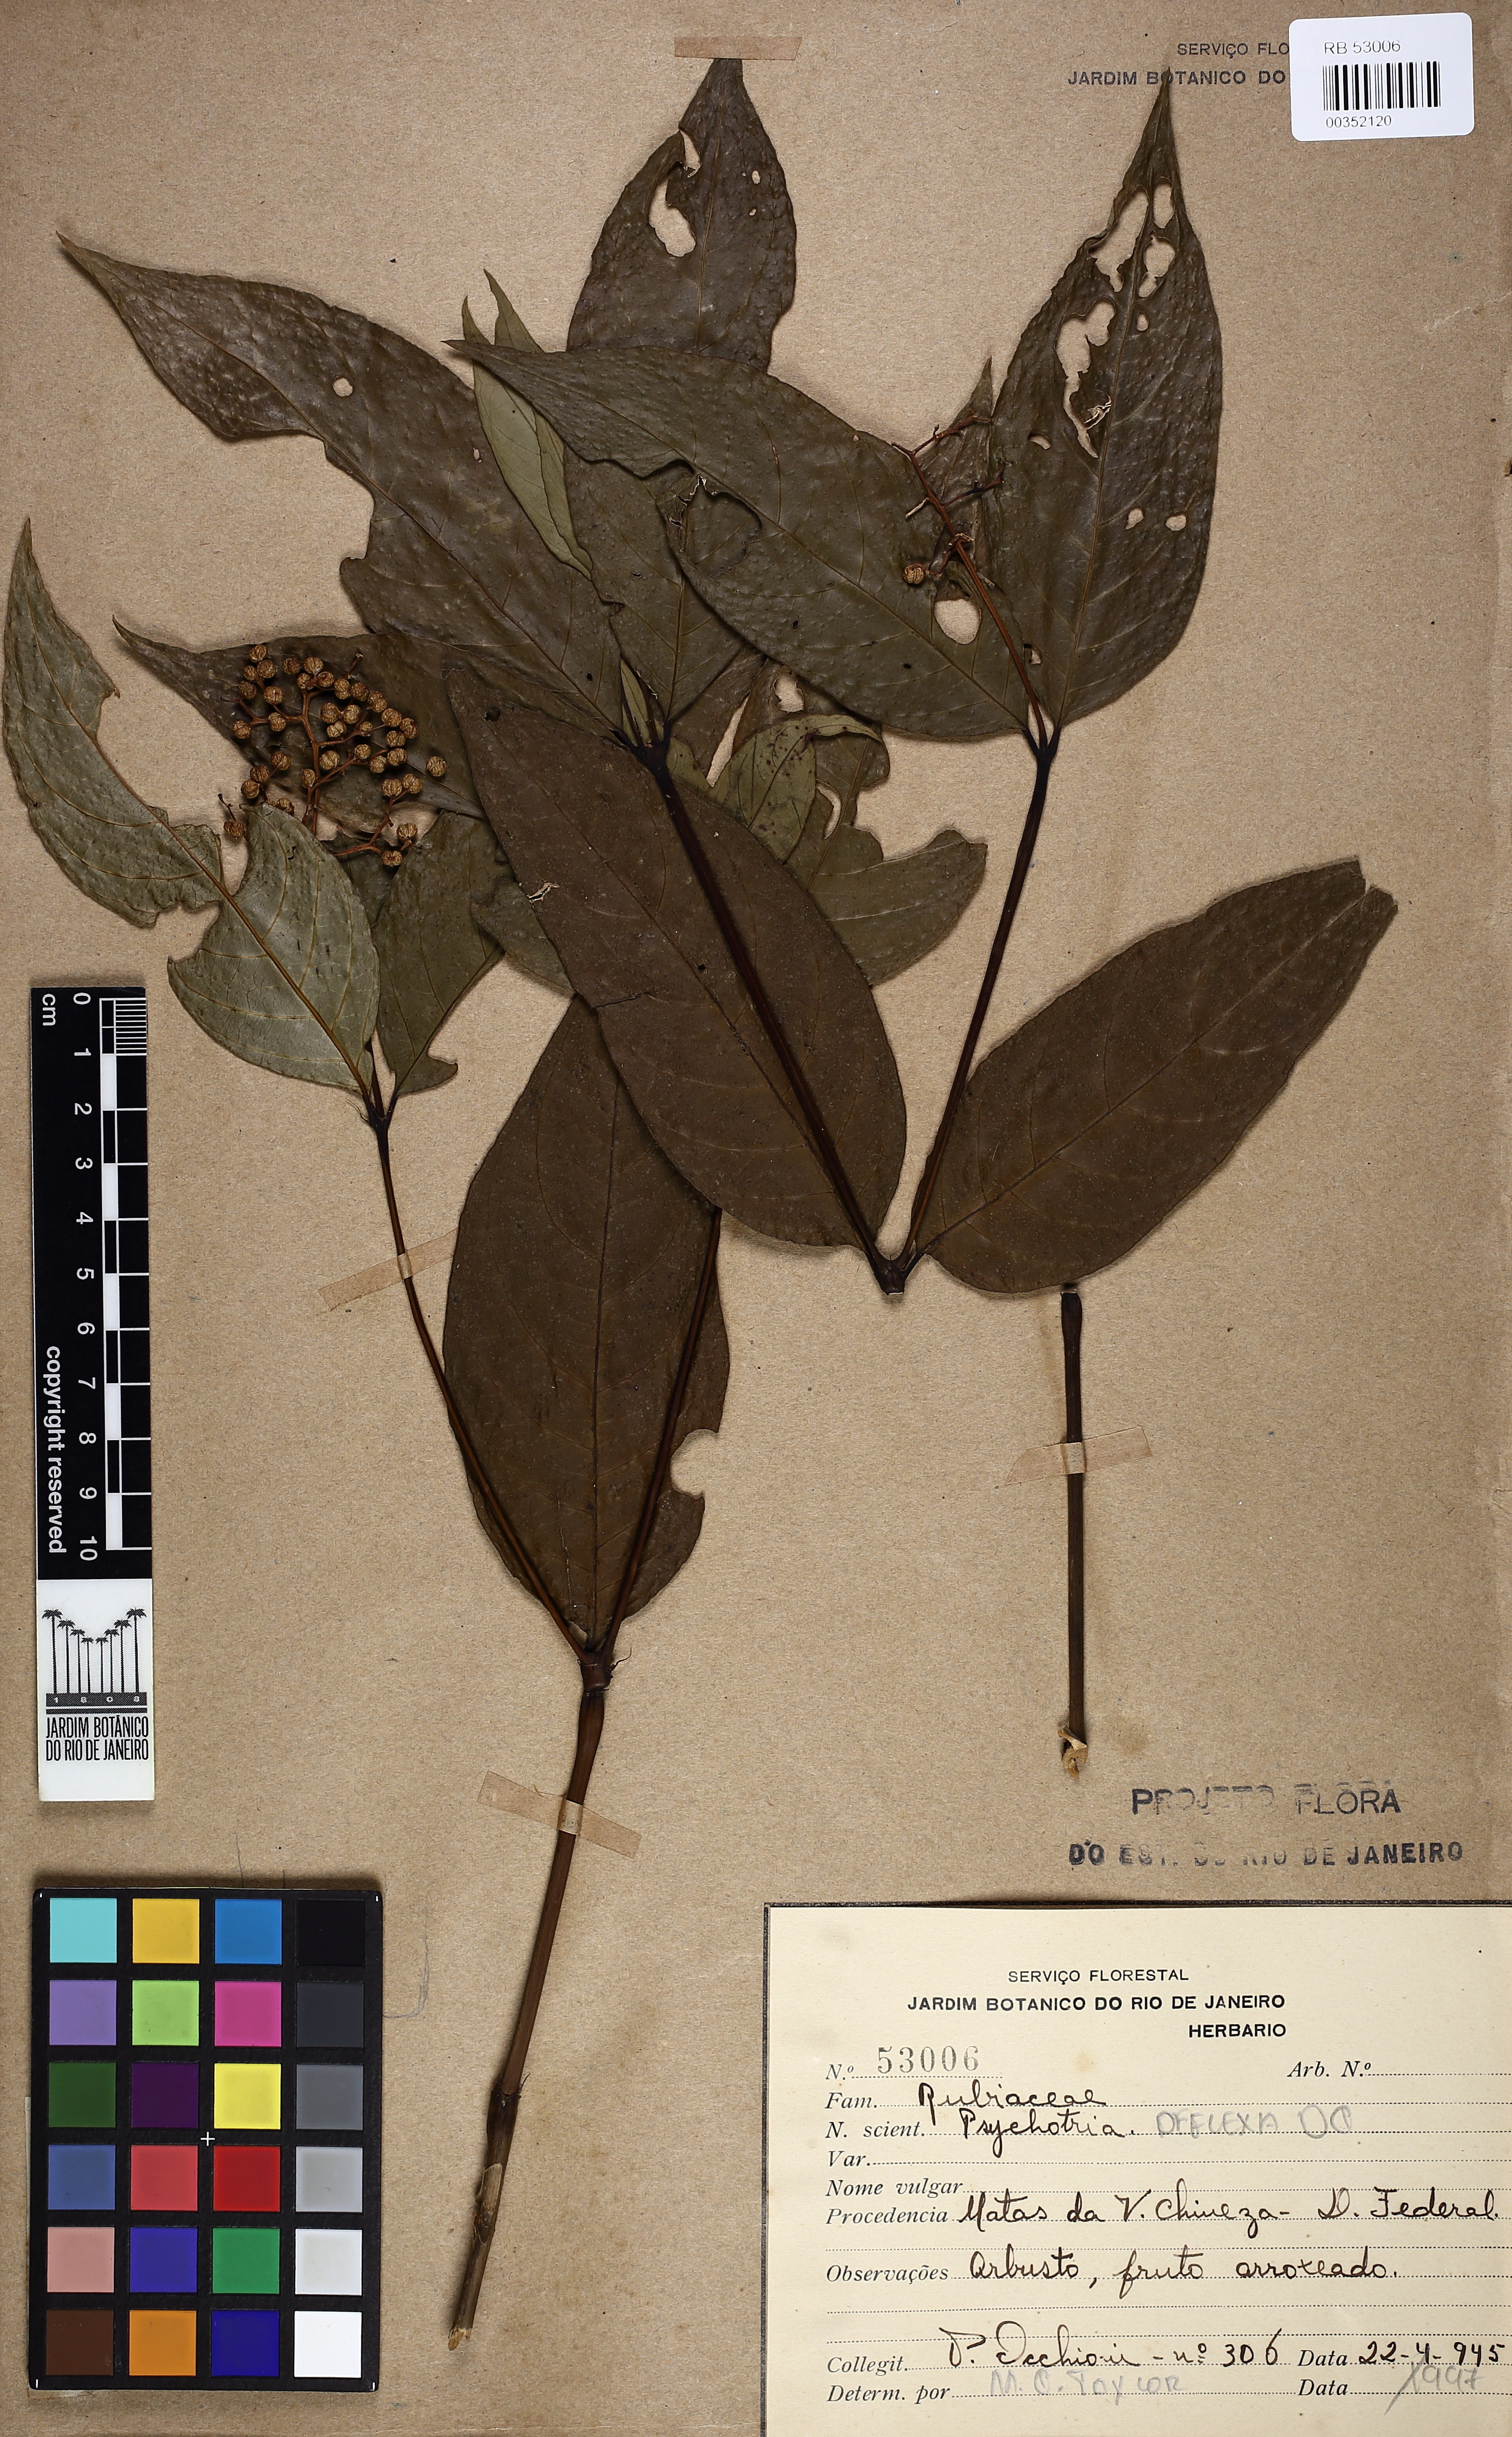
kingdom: Plantae
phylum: Tracheophyta
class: Magnoliopsida
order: Gentianales
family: Rubiaceae
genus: Palicourea
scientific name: Palicourea deflexa
